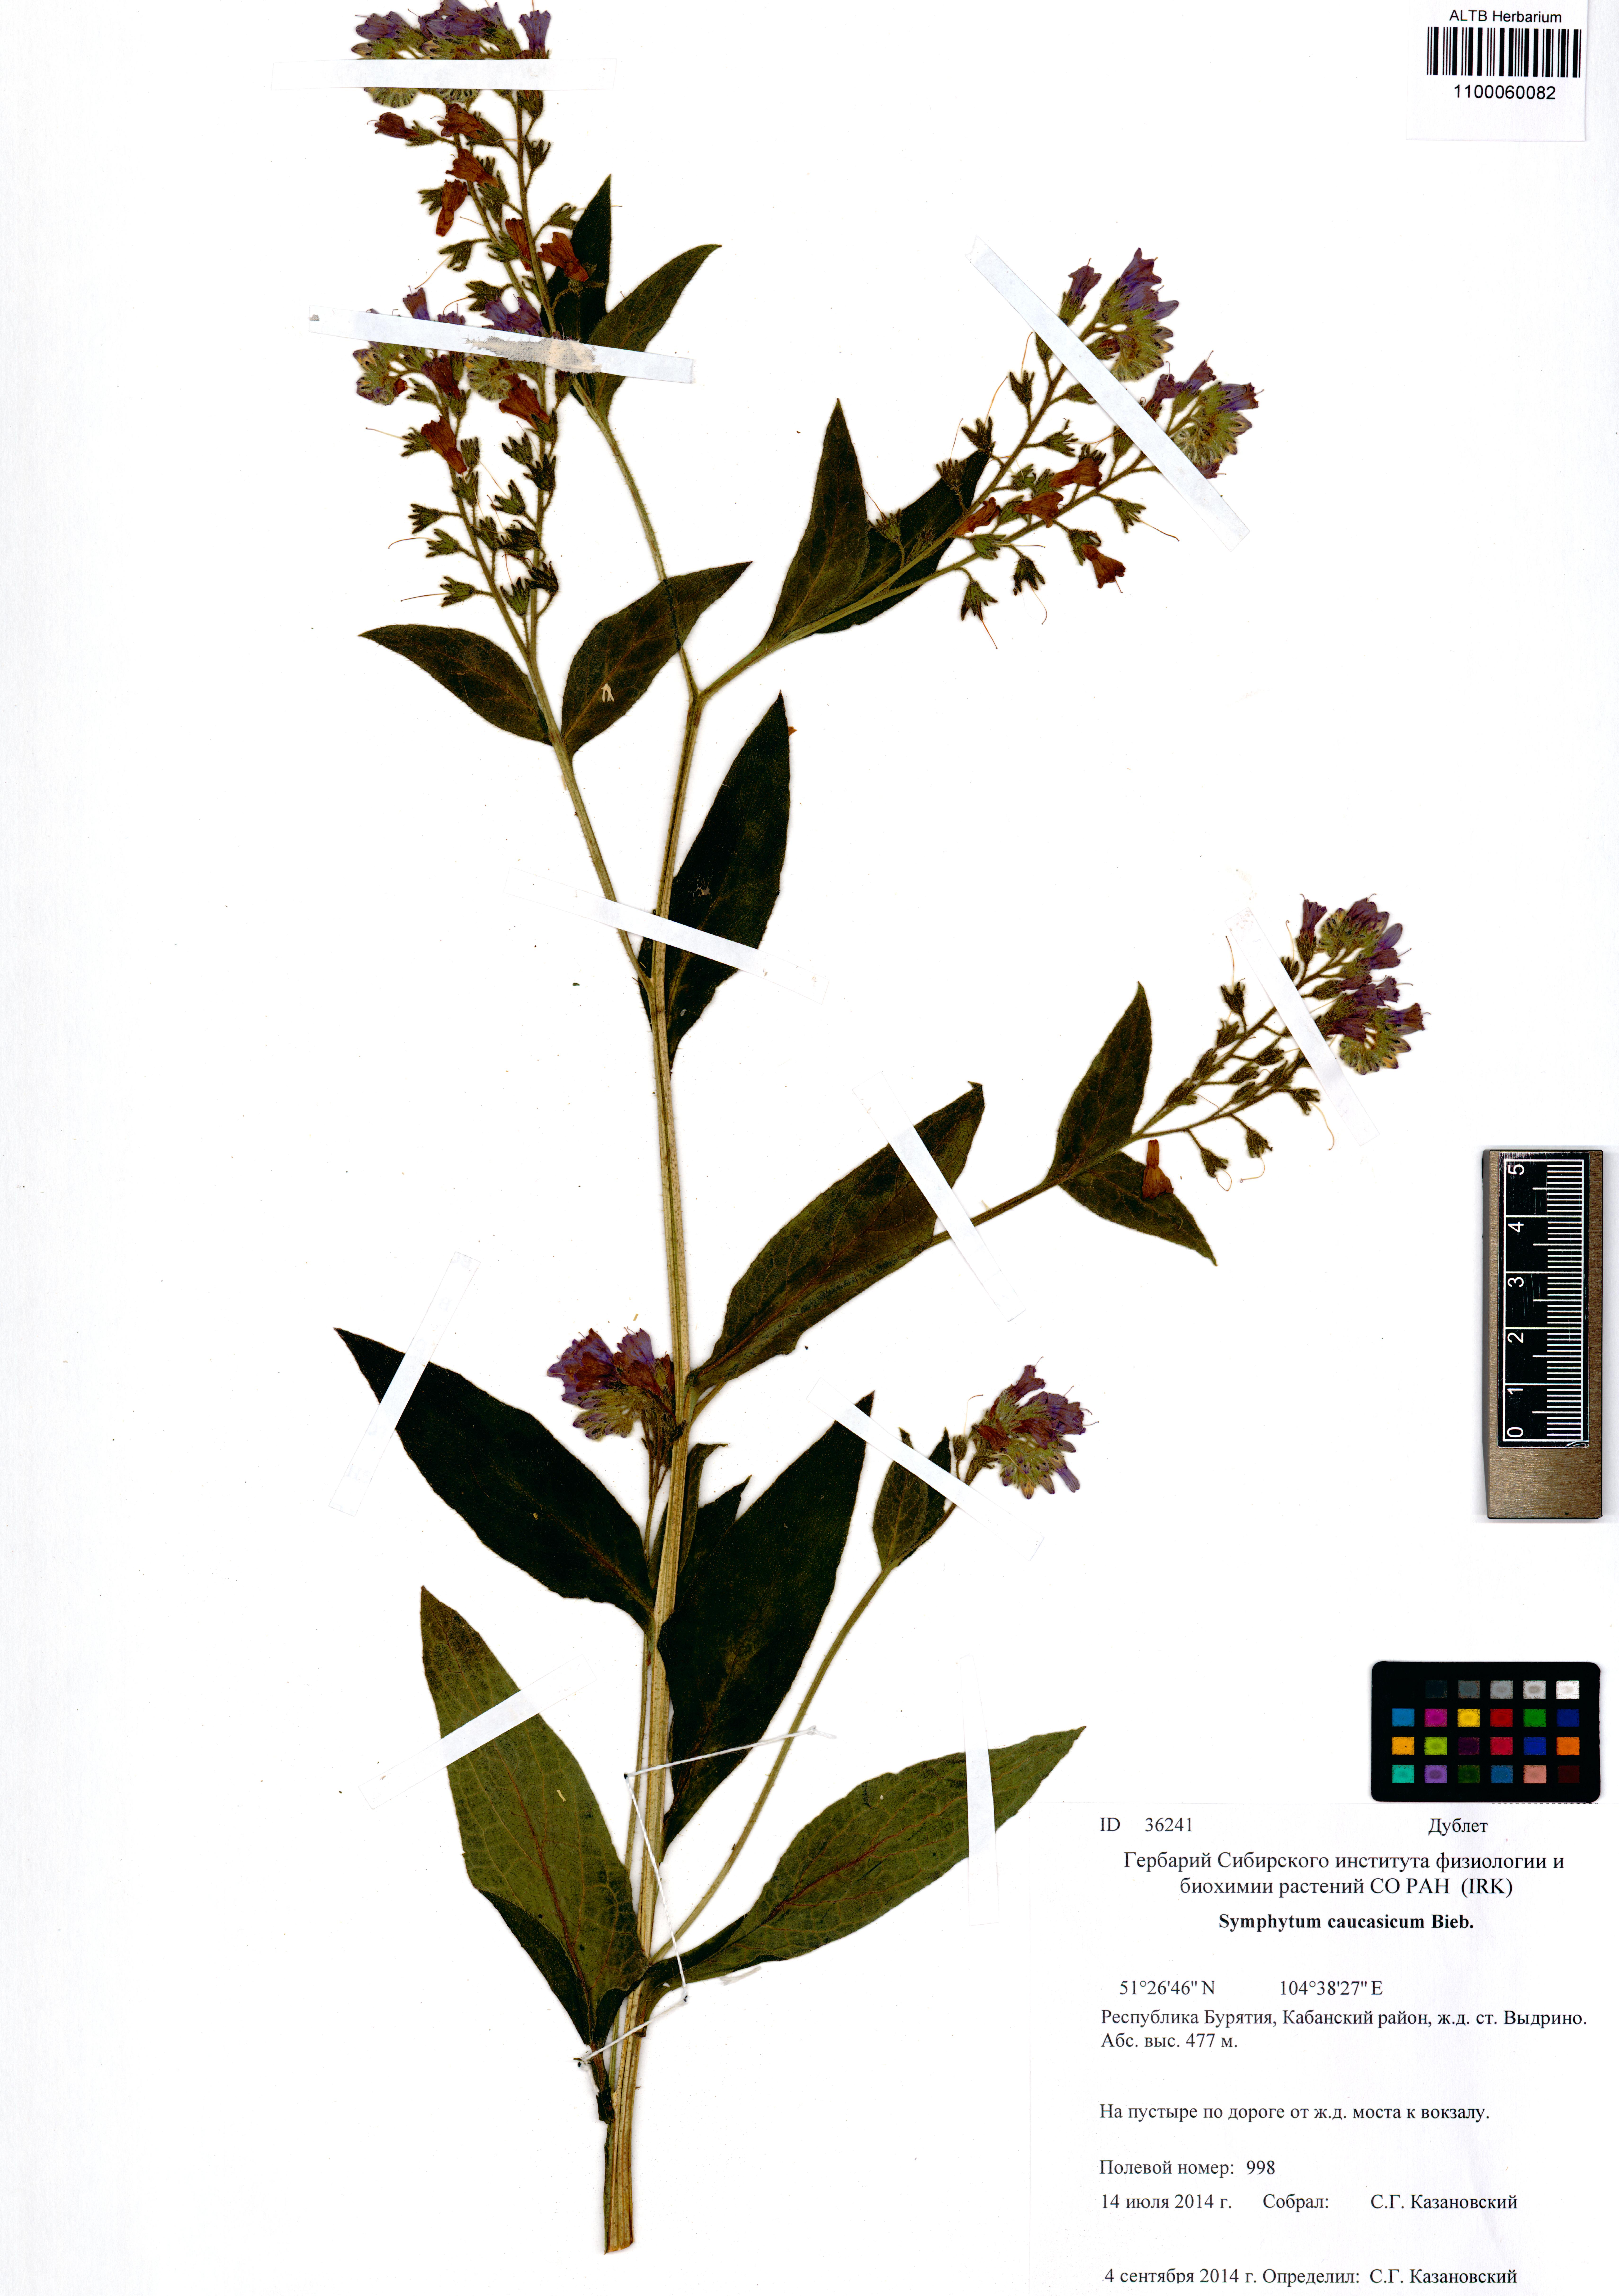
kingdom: Plantae
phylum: Tracheophyta
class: Magnoliopsida
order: Boraginales
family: Boraginaceae
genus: Symphytum
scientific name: Symphytum caucasicum
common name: Caucasian comfrey
